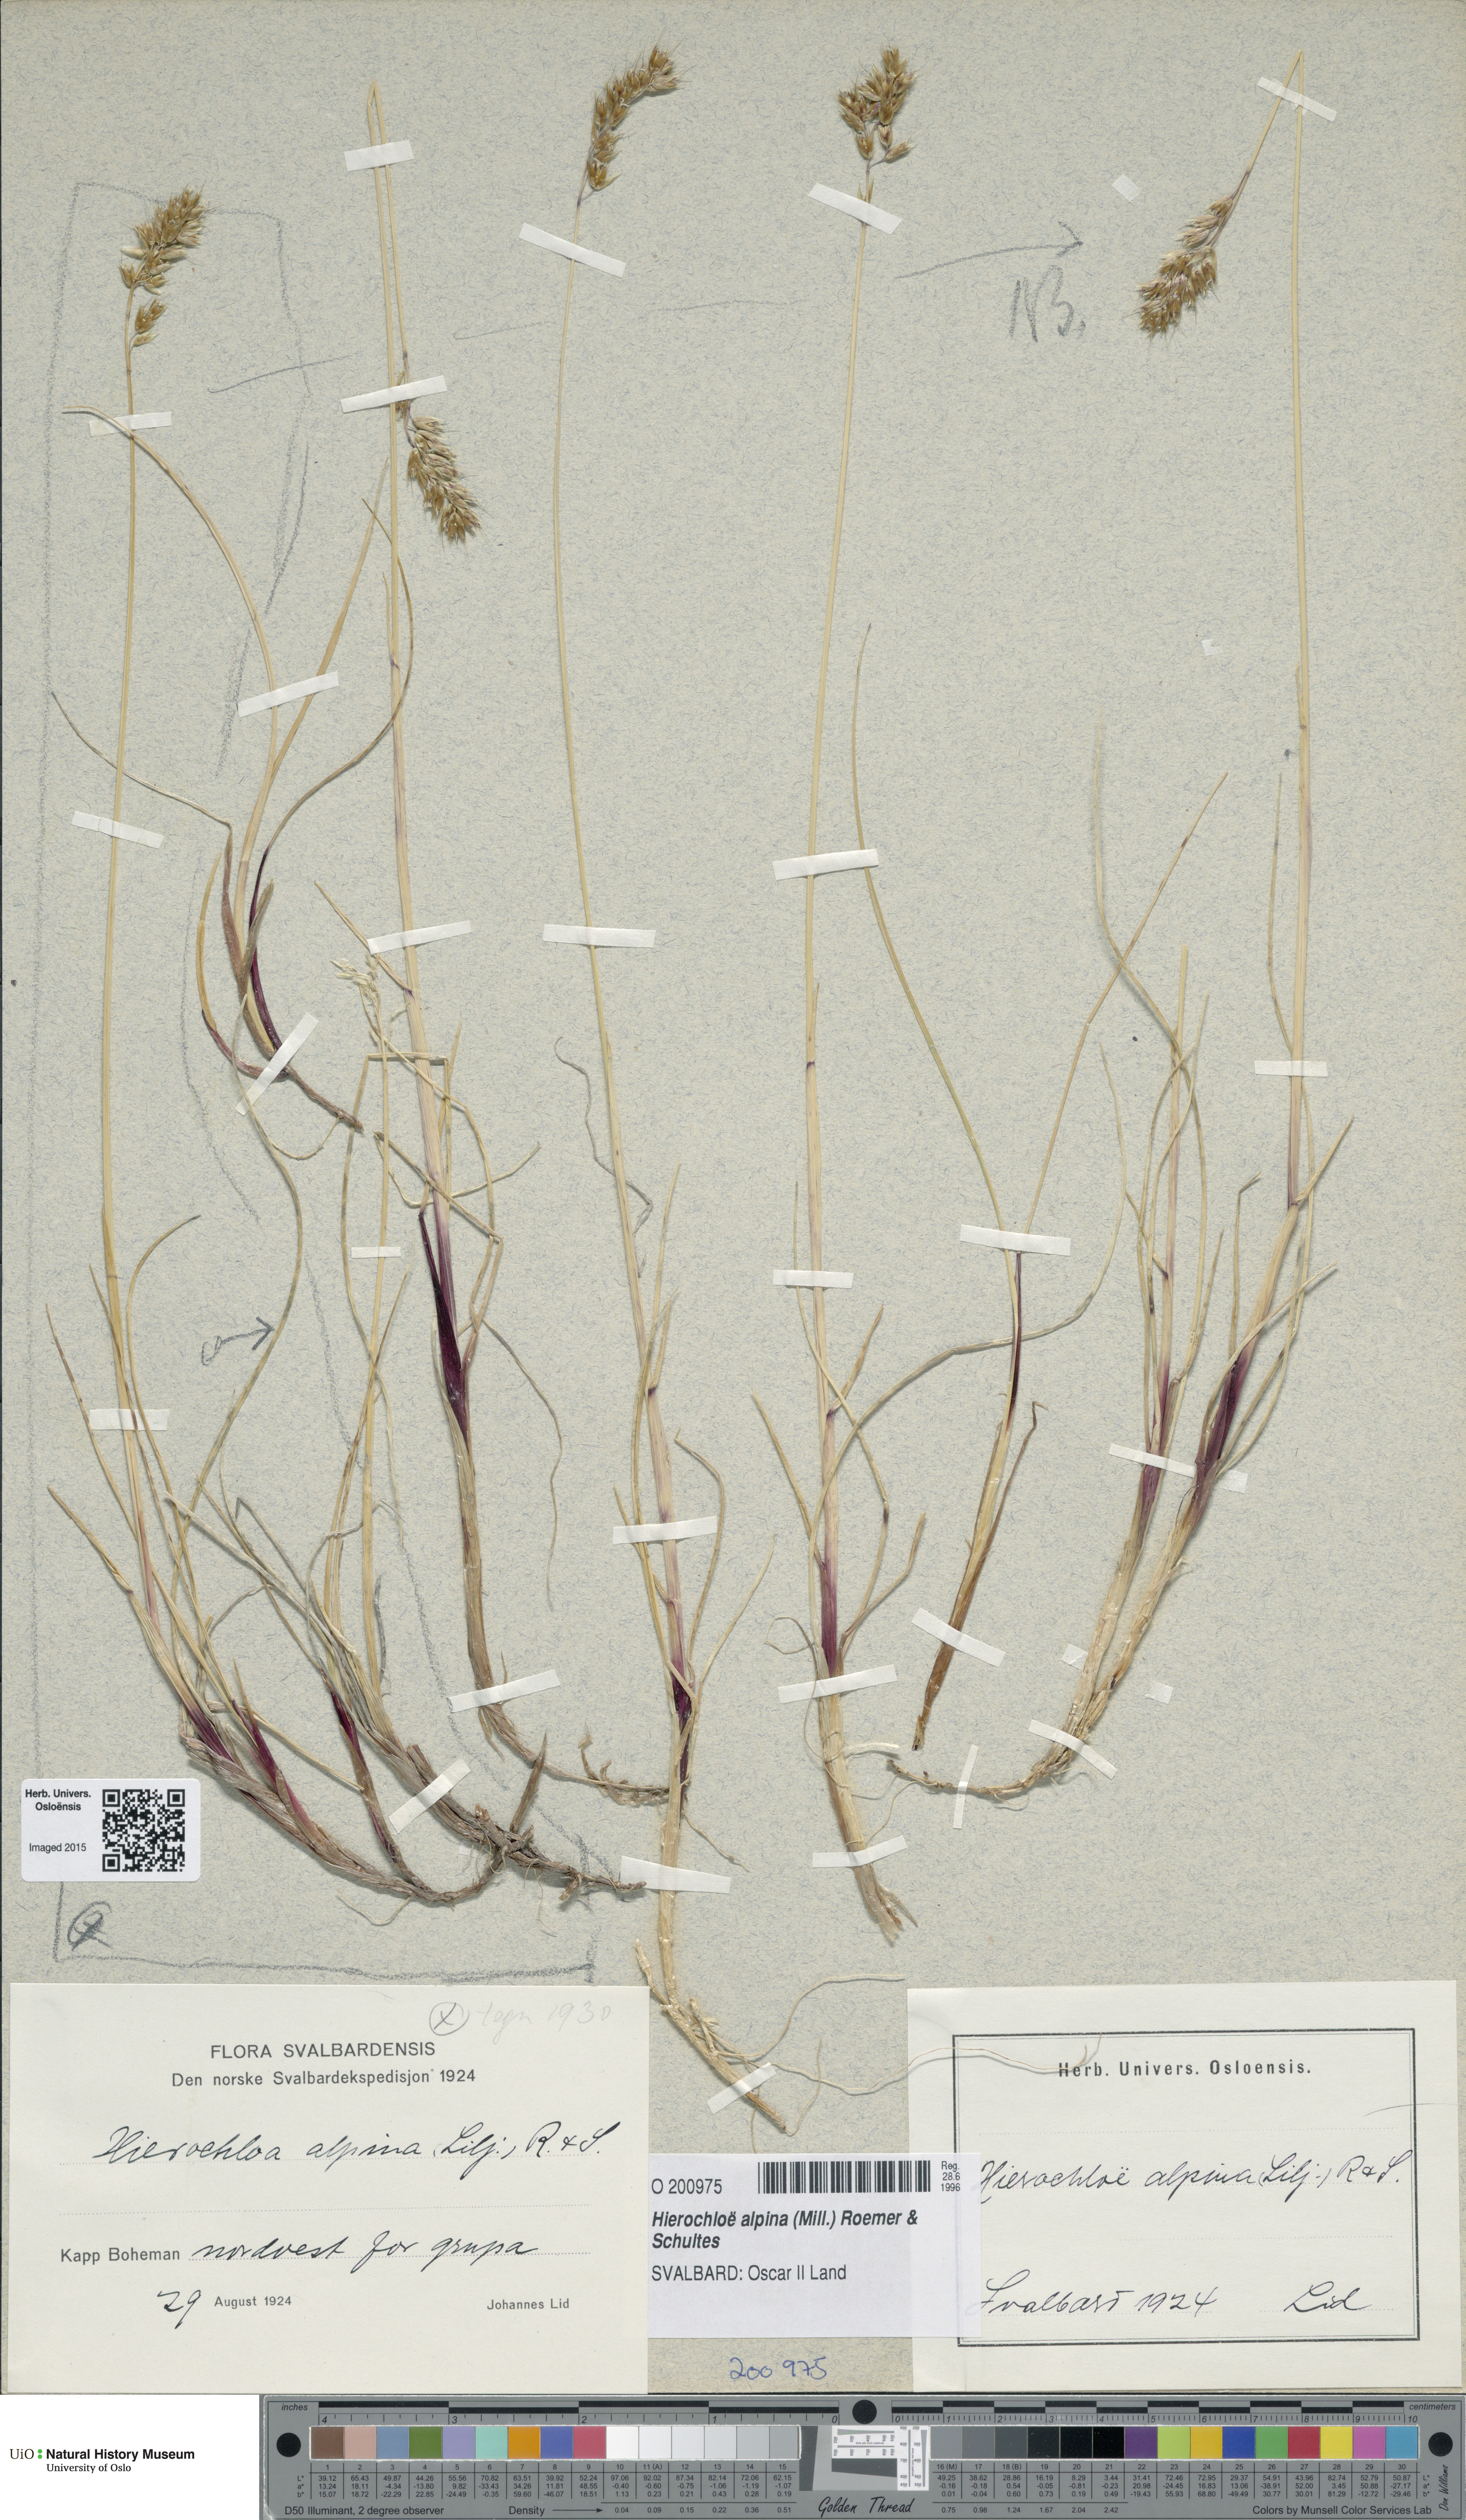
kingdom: Plantae
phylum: Tracheophyta
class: Liliopsida
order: Poales
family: Poaceae
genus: Anthoxanthum
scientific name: Anthoxanthum monticola
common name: Alpine sweetgrass
